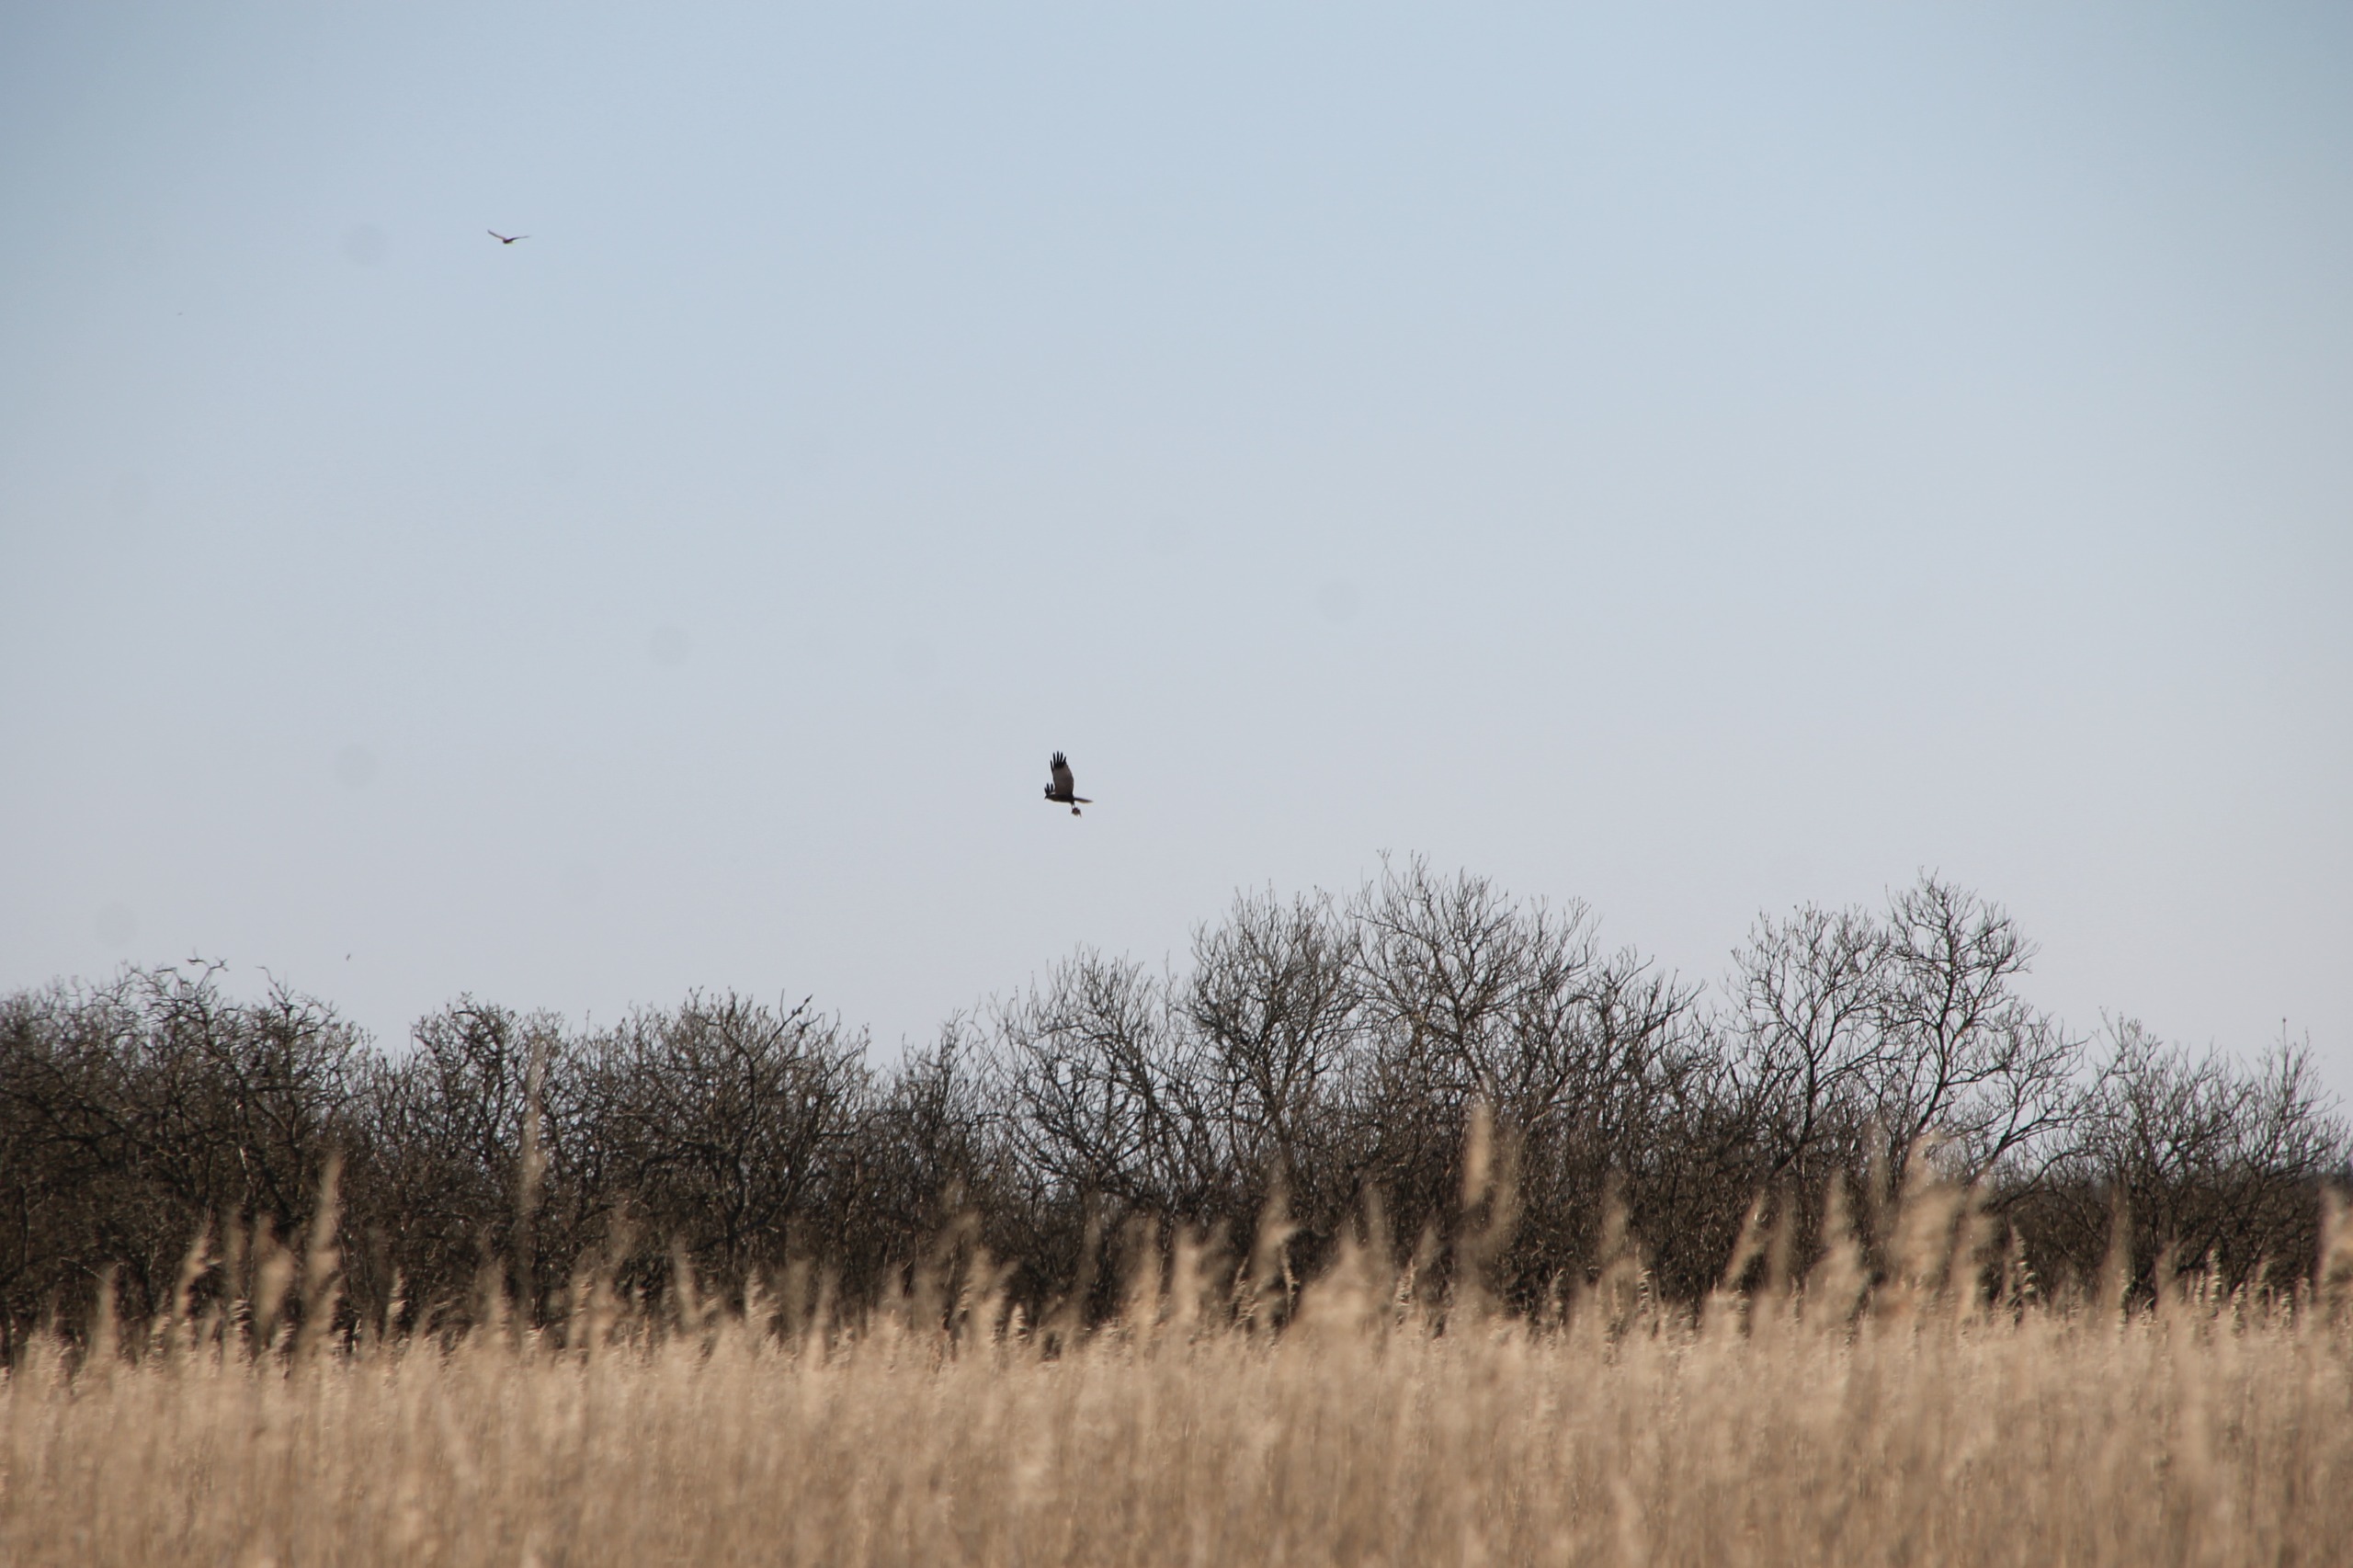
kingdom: Animalia
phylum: Chordata
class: Aves
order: Accipitriformes
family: Accipitridae
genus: Circus
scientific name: Circus aeruginosus
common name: Rørhøg
